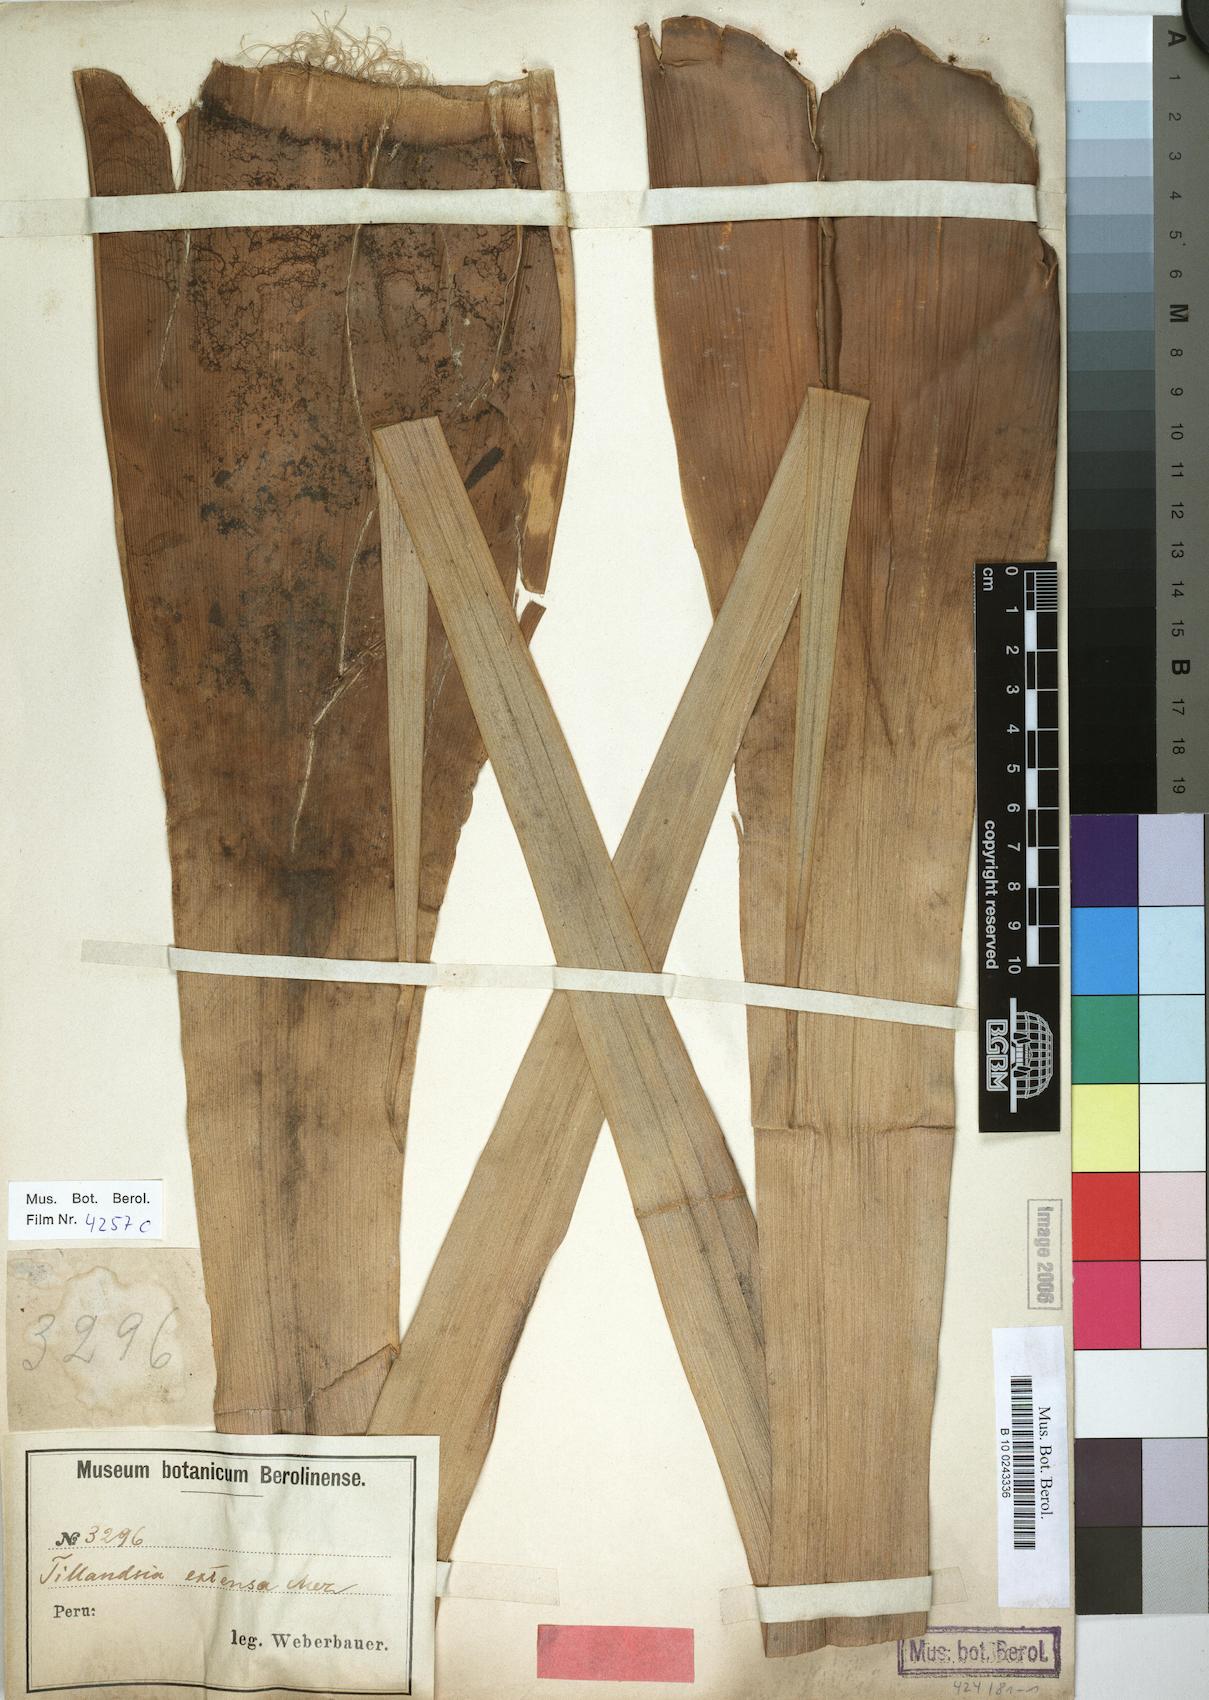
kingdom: Plantae
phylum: Tracheophyta
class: Liliopsida
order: Poales
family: Bromeliaceae
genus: Tillandsia
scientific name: Tillandsia extensa
